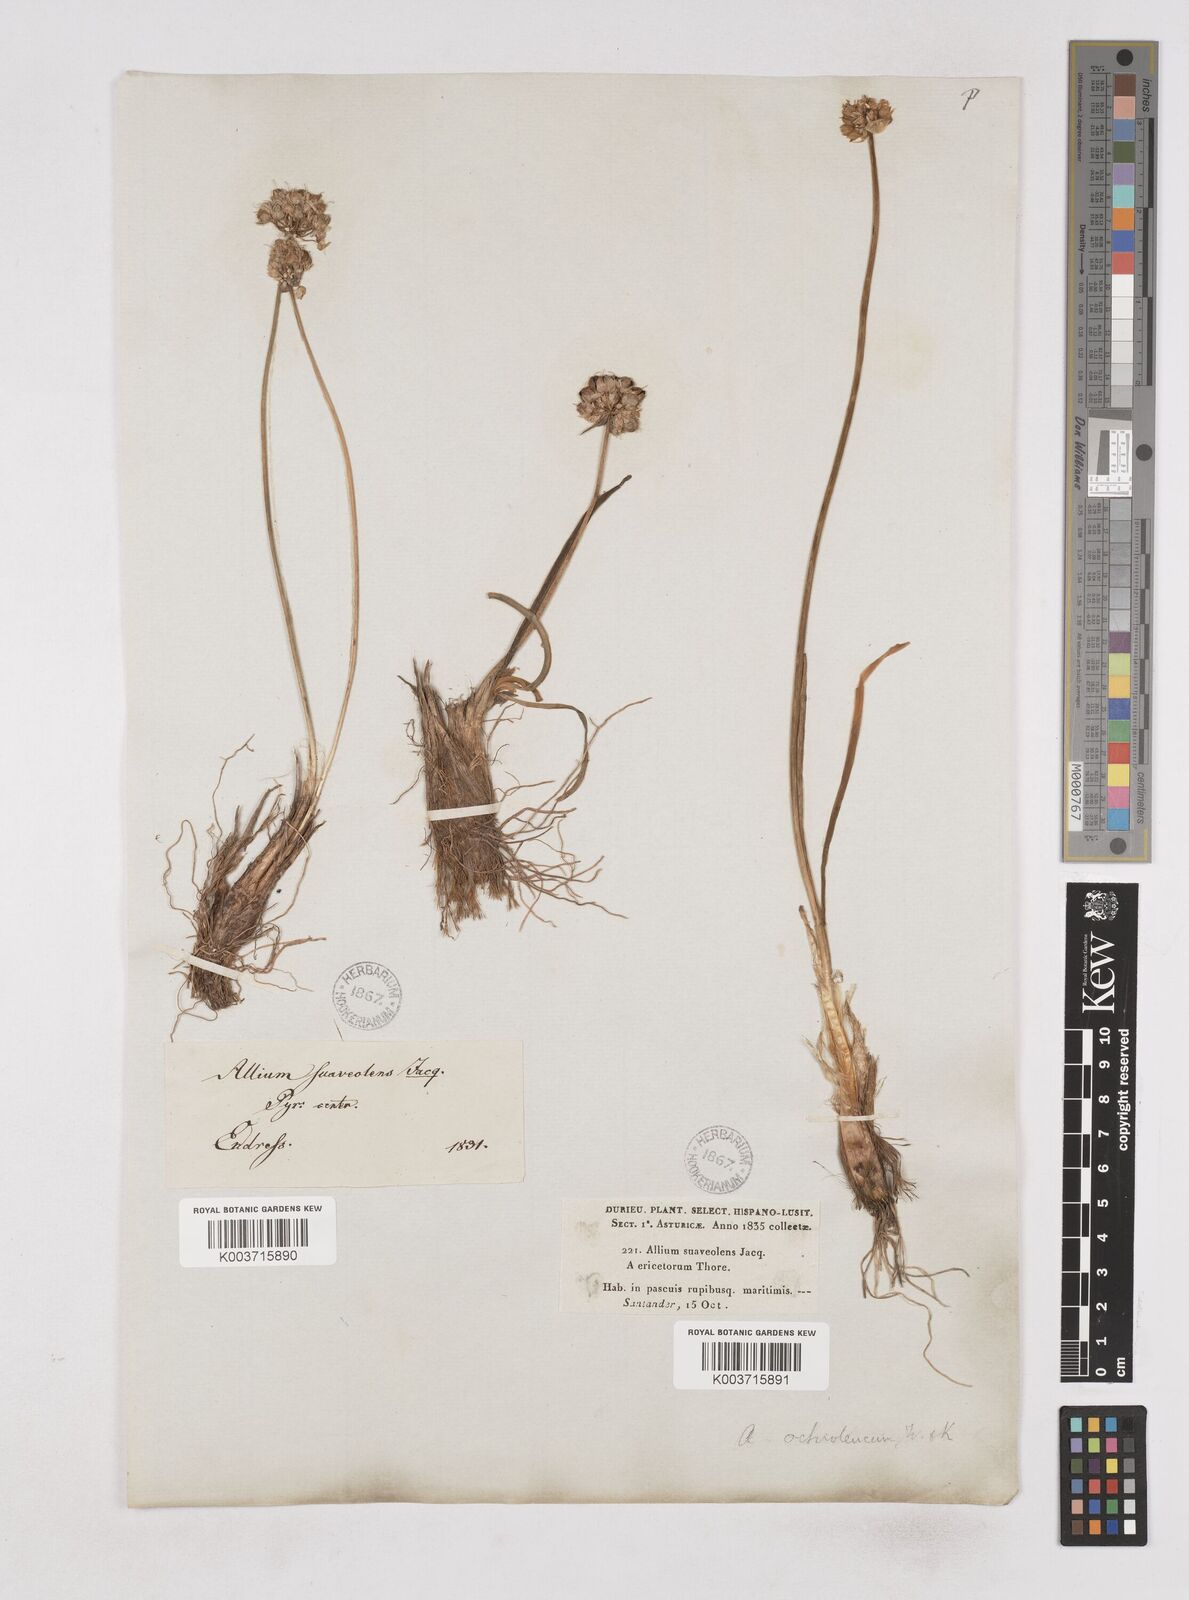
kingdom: Plantae
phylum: Tracheophyta
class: Liliopsida
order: Asparagales
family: Amaryllidaceae
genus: Allium
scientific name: Allium ericetorum
